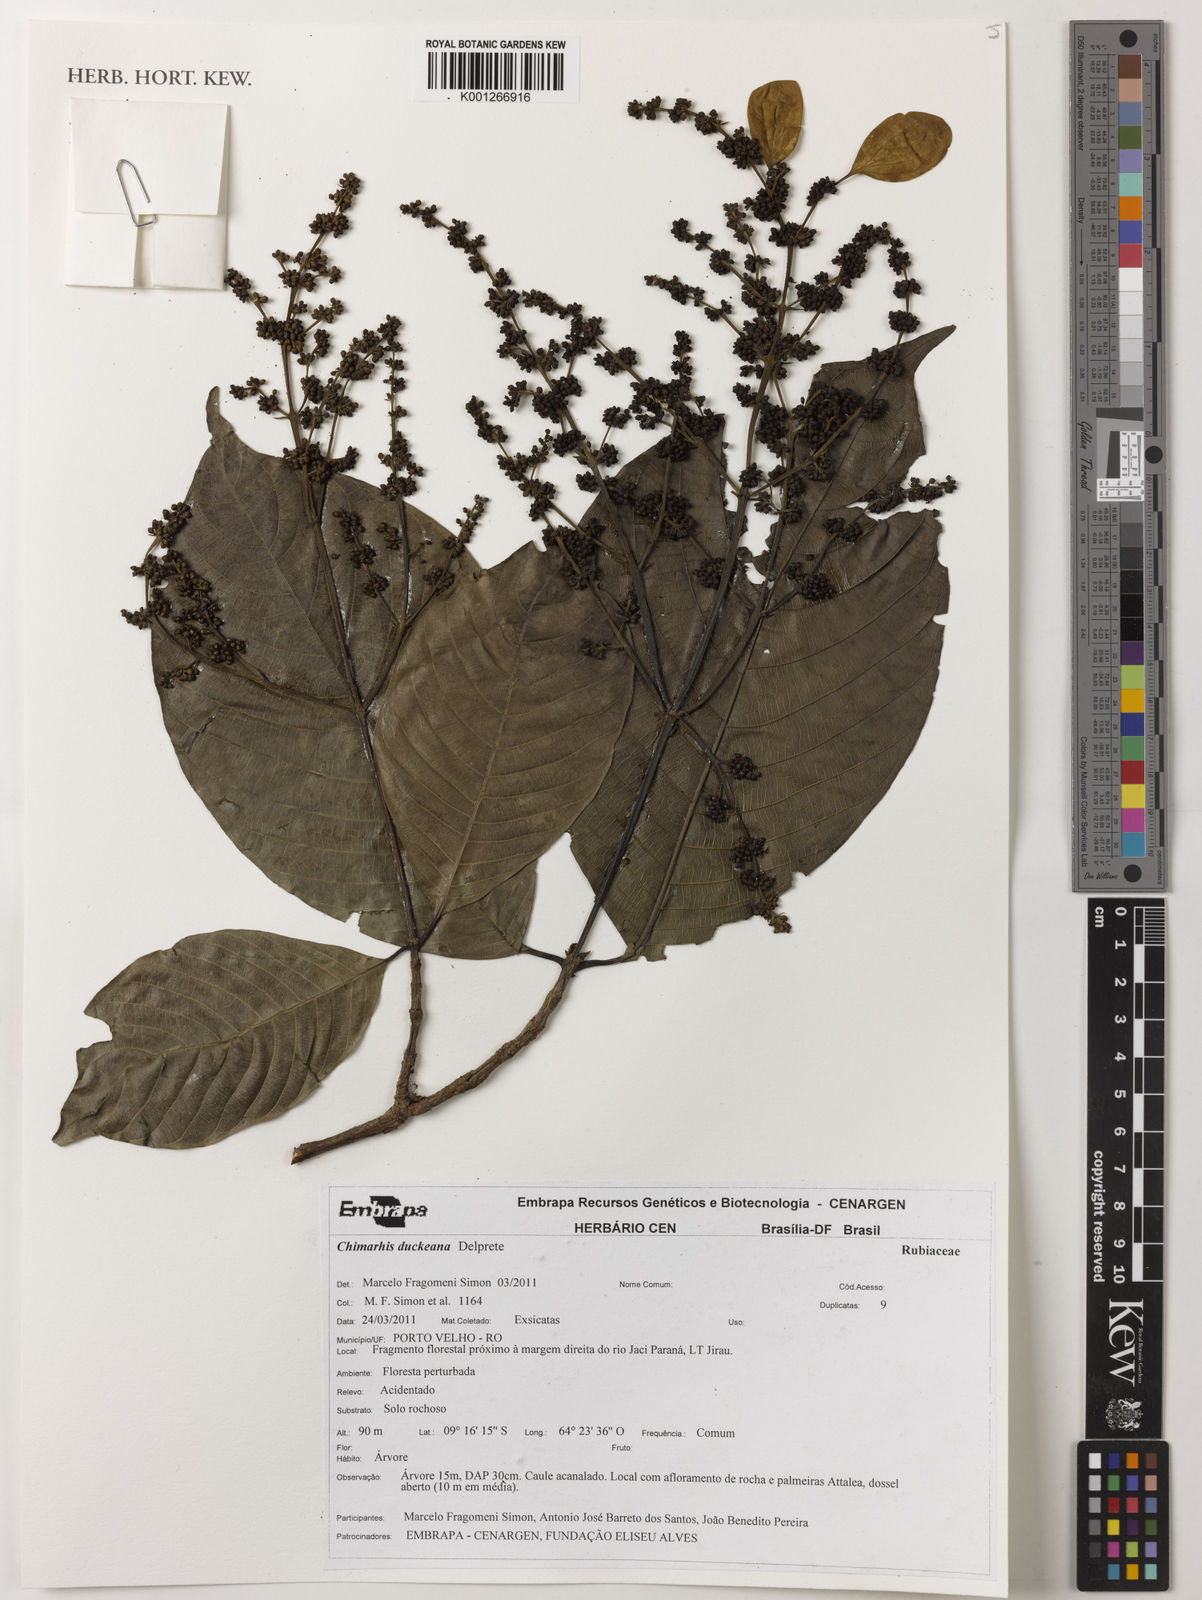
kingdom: Plantae
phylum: Tracheophyta
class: Magnoliopsida
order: Gentianales
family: Rubiaceae
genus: Chimarrhis
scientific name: Chimarrhis duckeana
